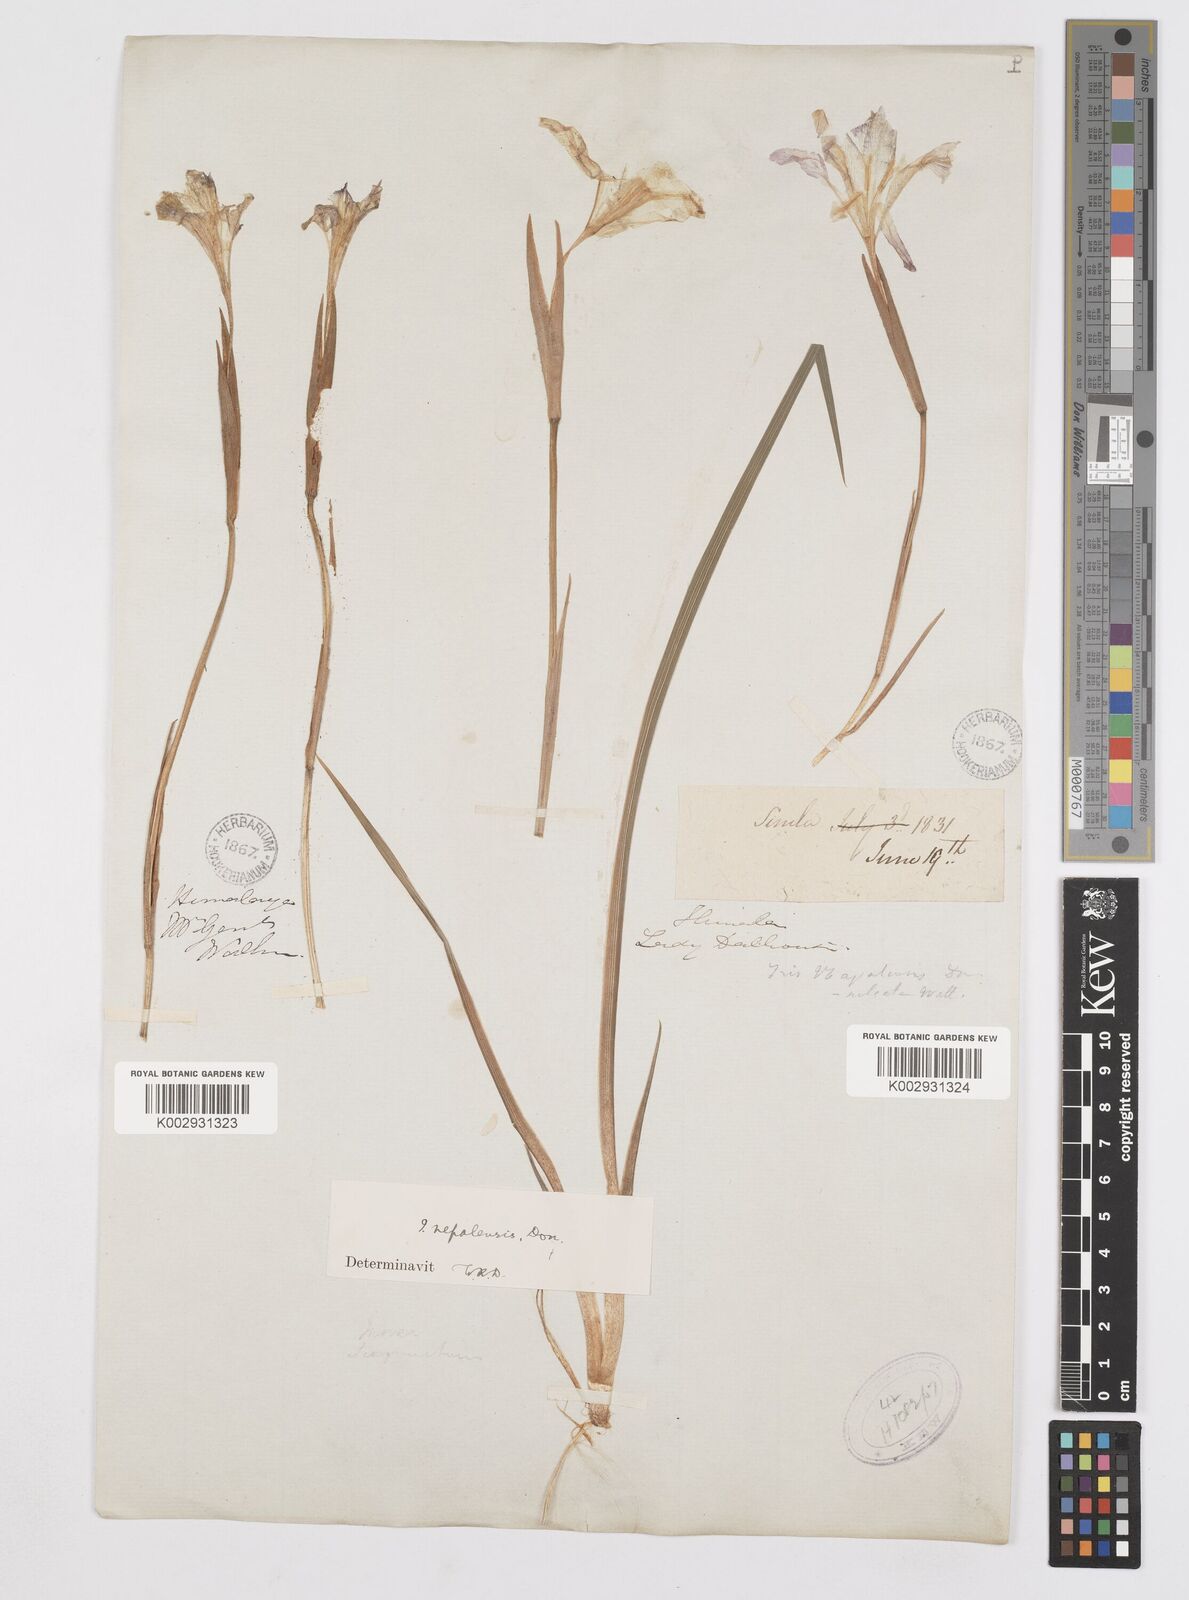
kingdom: Plantae
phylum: Tracheophyta
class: Liliopsida
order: Asparagales
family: Iridaceae
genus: Iris
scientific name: Iris decora
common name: Nepal iris
